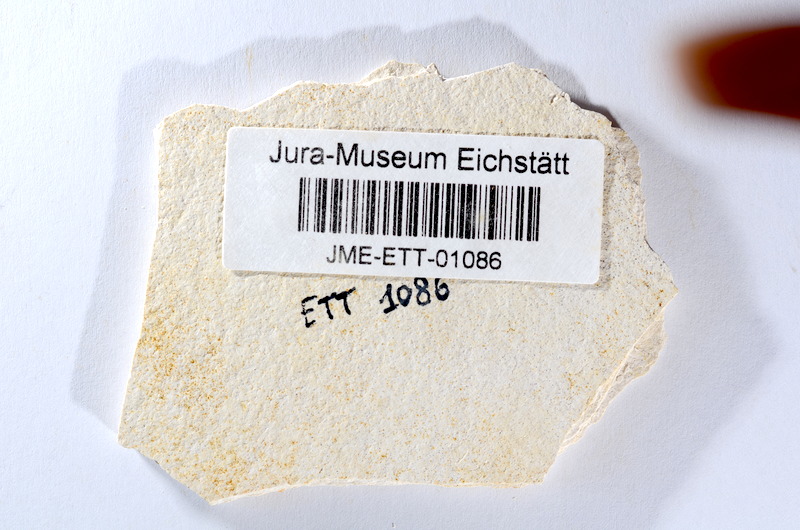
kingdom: Animalia
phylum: Chordata
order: Salmoniformes
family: Orthogonikleithridae
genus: Orthogonikleithrus
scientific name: Orthogonikleithrus hoelli
